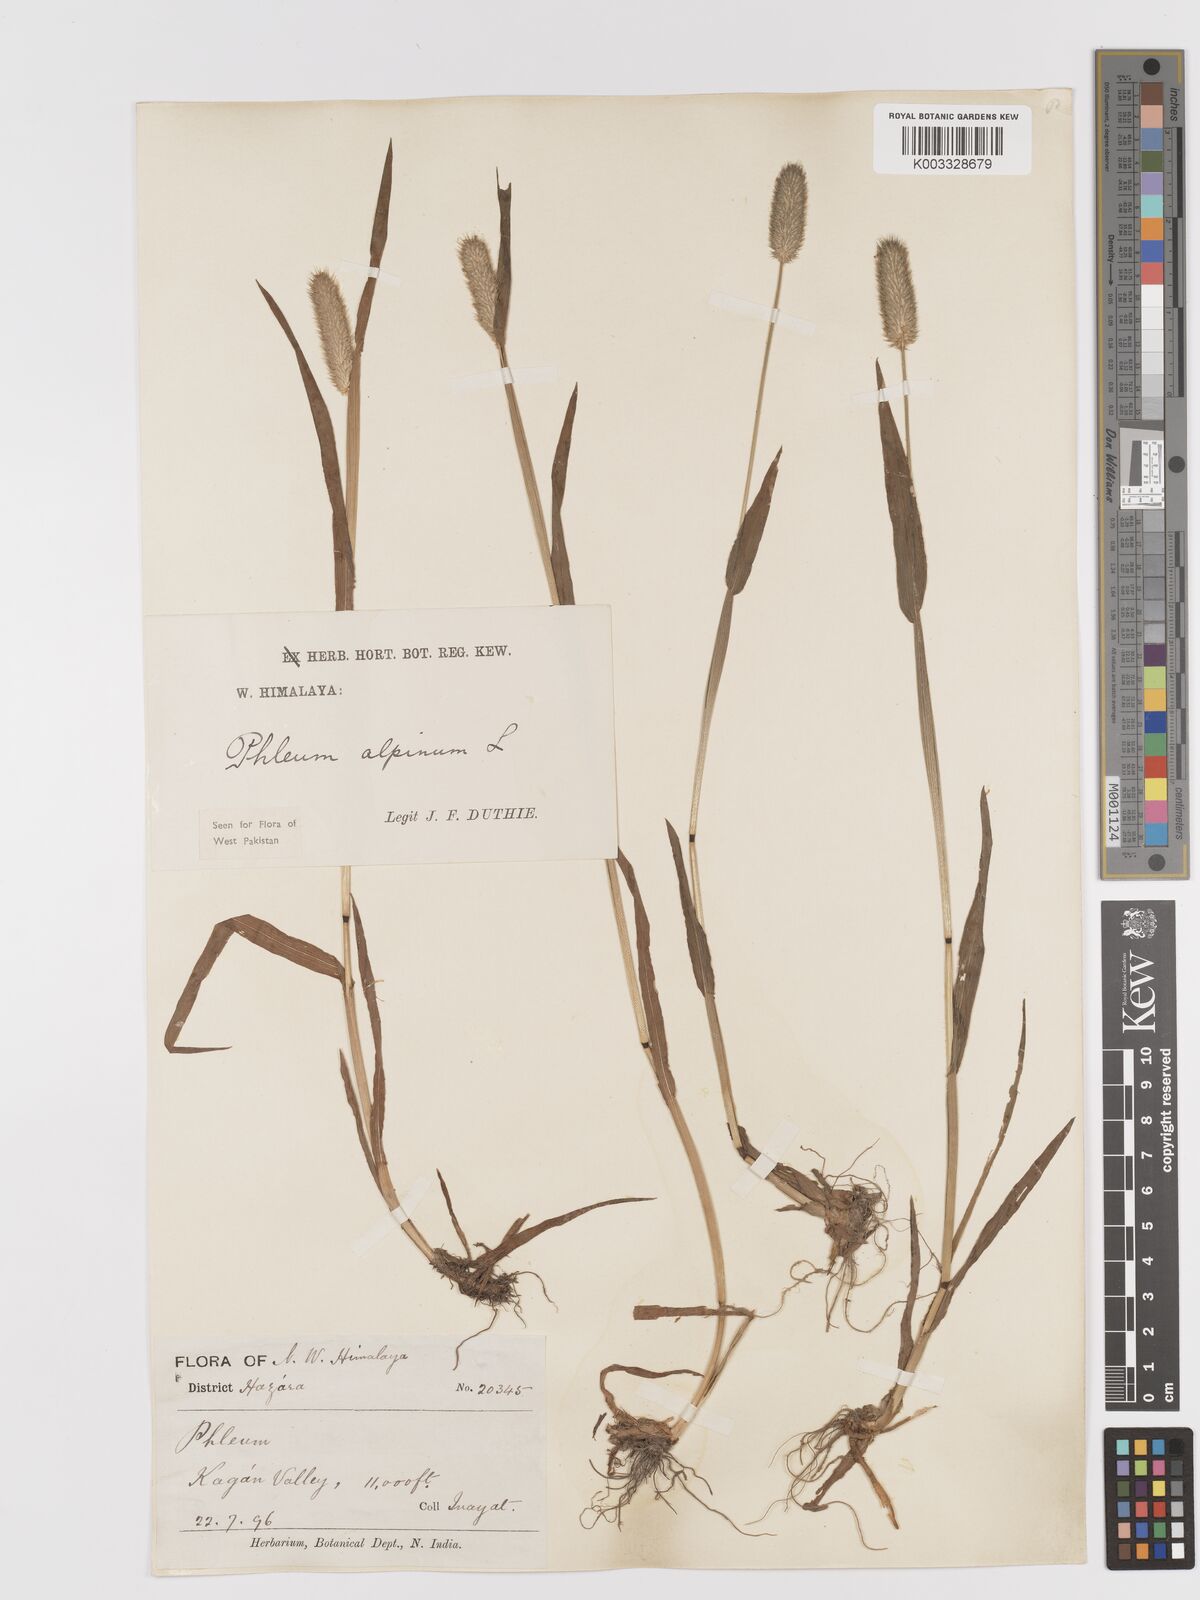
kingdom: Plantae
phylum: Tracheophyta
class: Liliopsida
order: Poales
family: Poaceae
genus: Phleum
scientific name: Phleum alpinum
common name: Alpine cat's-tail
